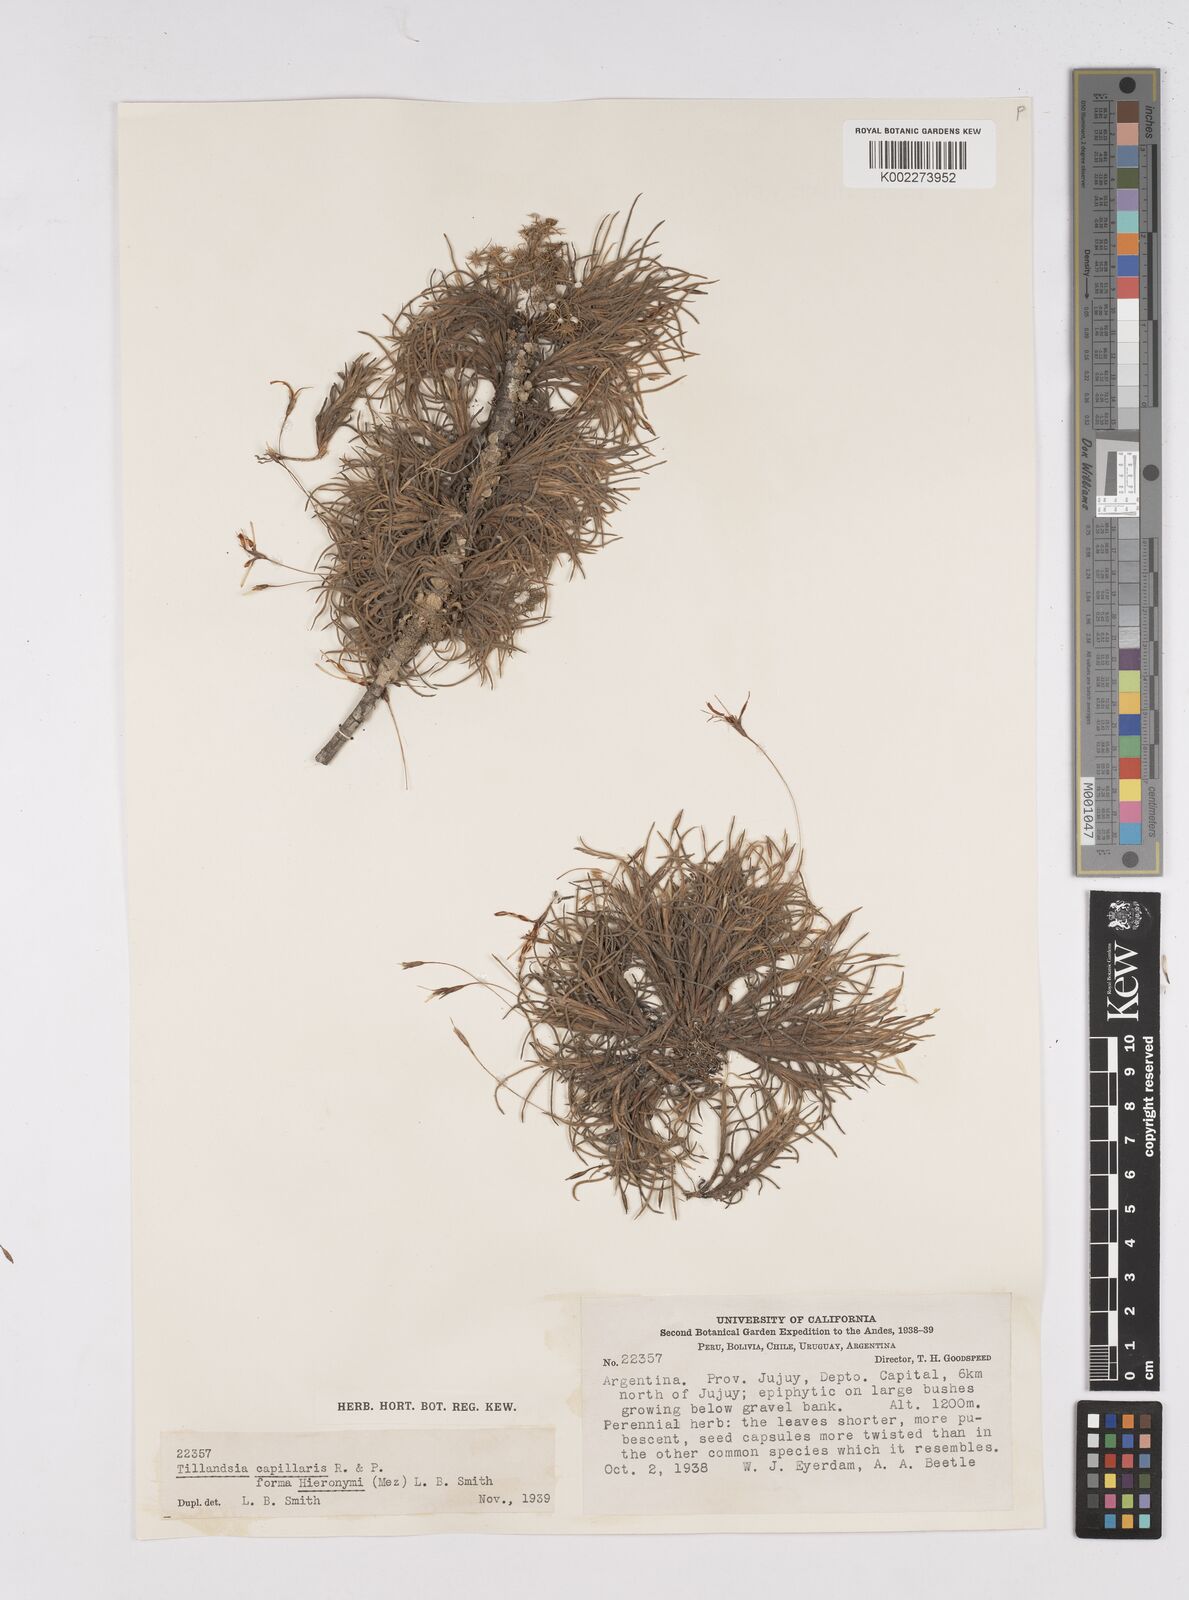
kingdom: Plantae
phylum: Tracheophyta
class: Liliopsida
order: Poales
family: Bromeliaceae
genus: Tillandsia
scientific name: Tillandsia capillaris
